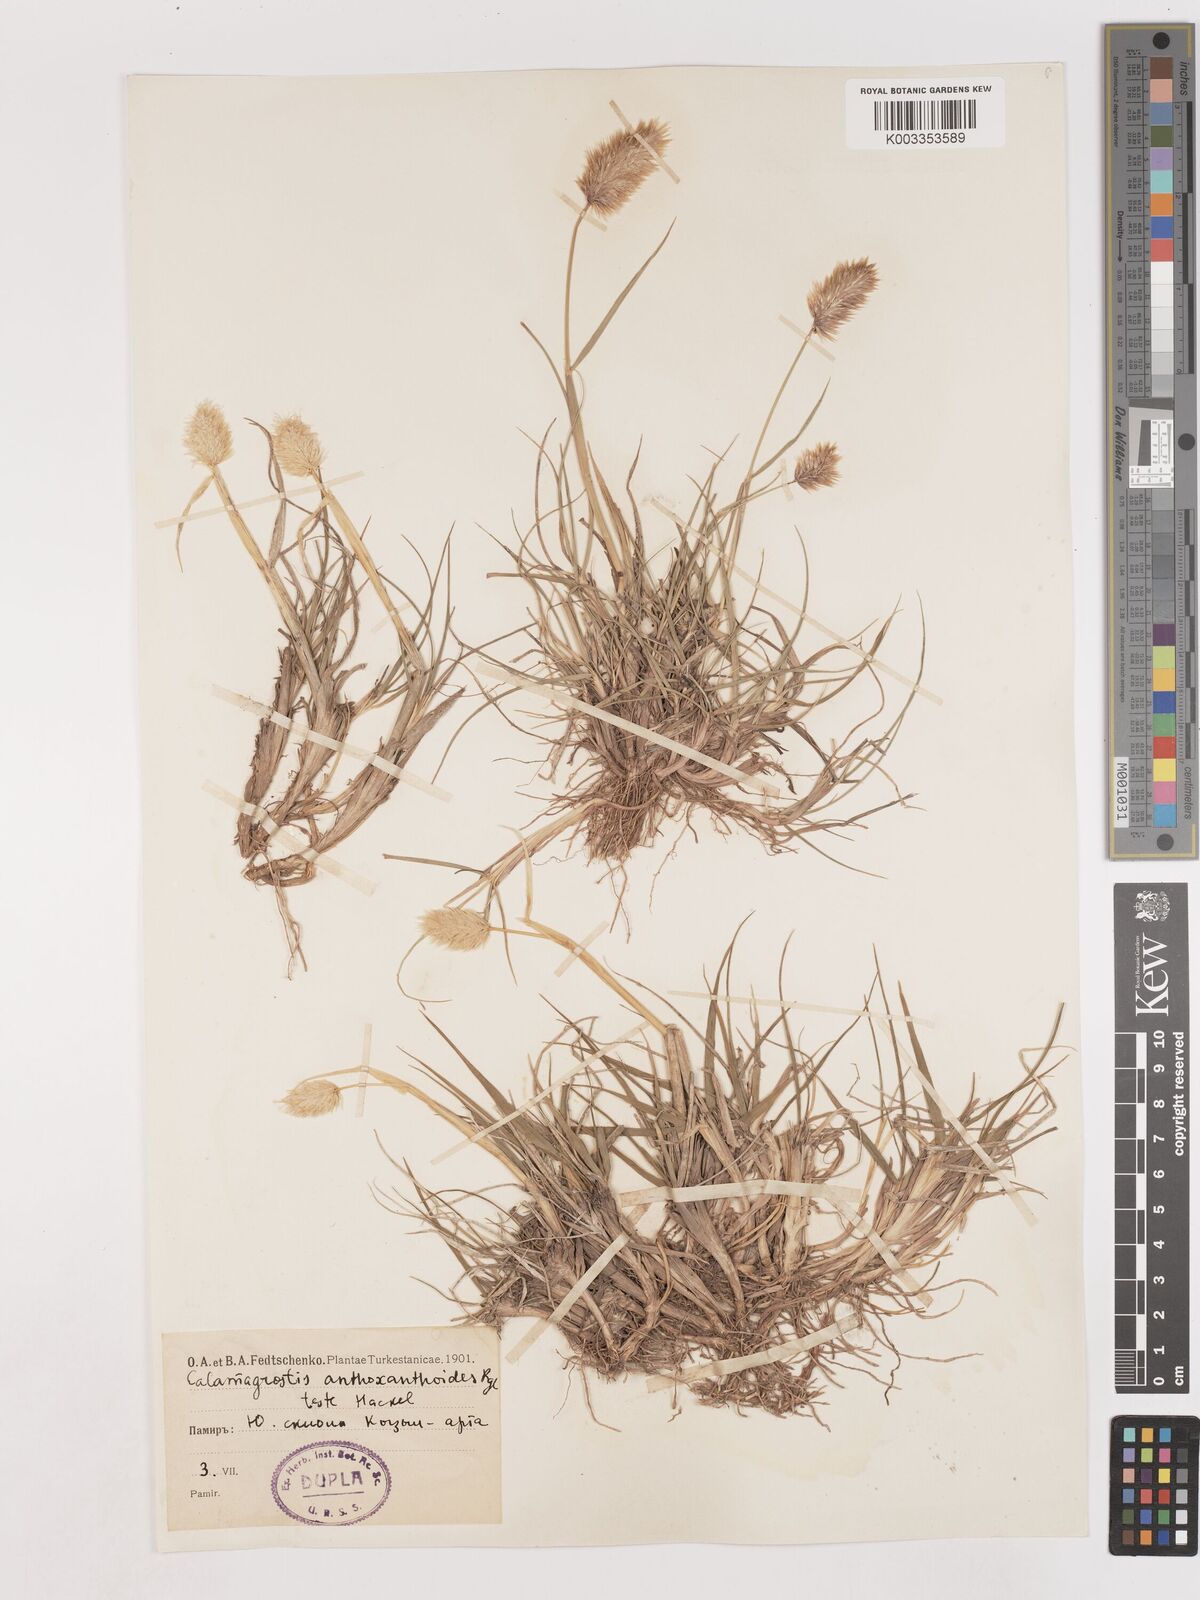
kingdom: Plantae
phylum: Tracheophyta
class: Liliopsida
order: Poales
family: Poaceae
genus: Calamagrostis
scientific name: Calamagrostis anthoxanthoides
